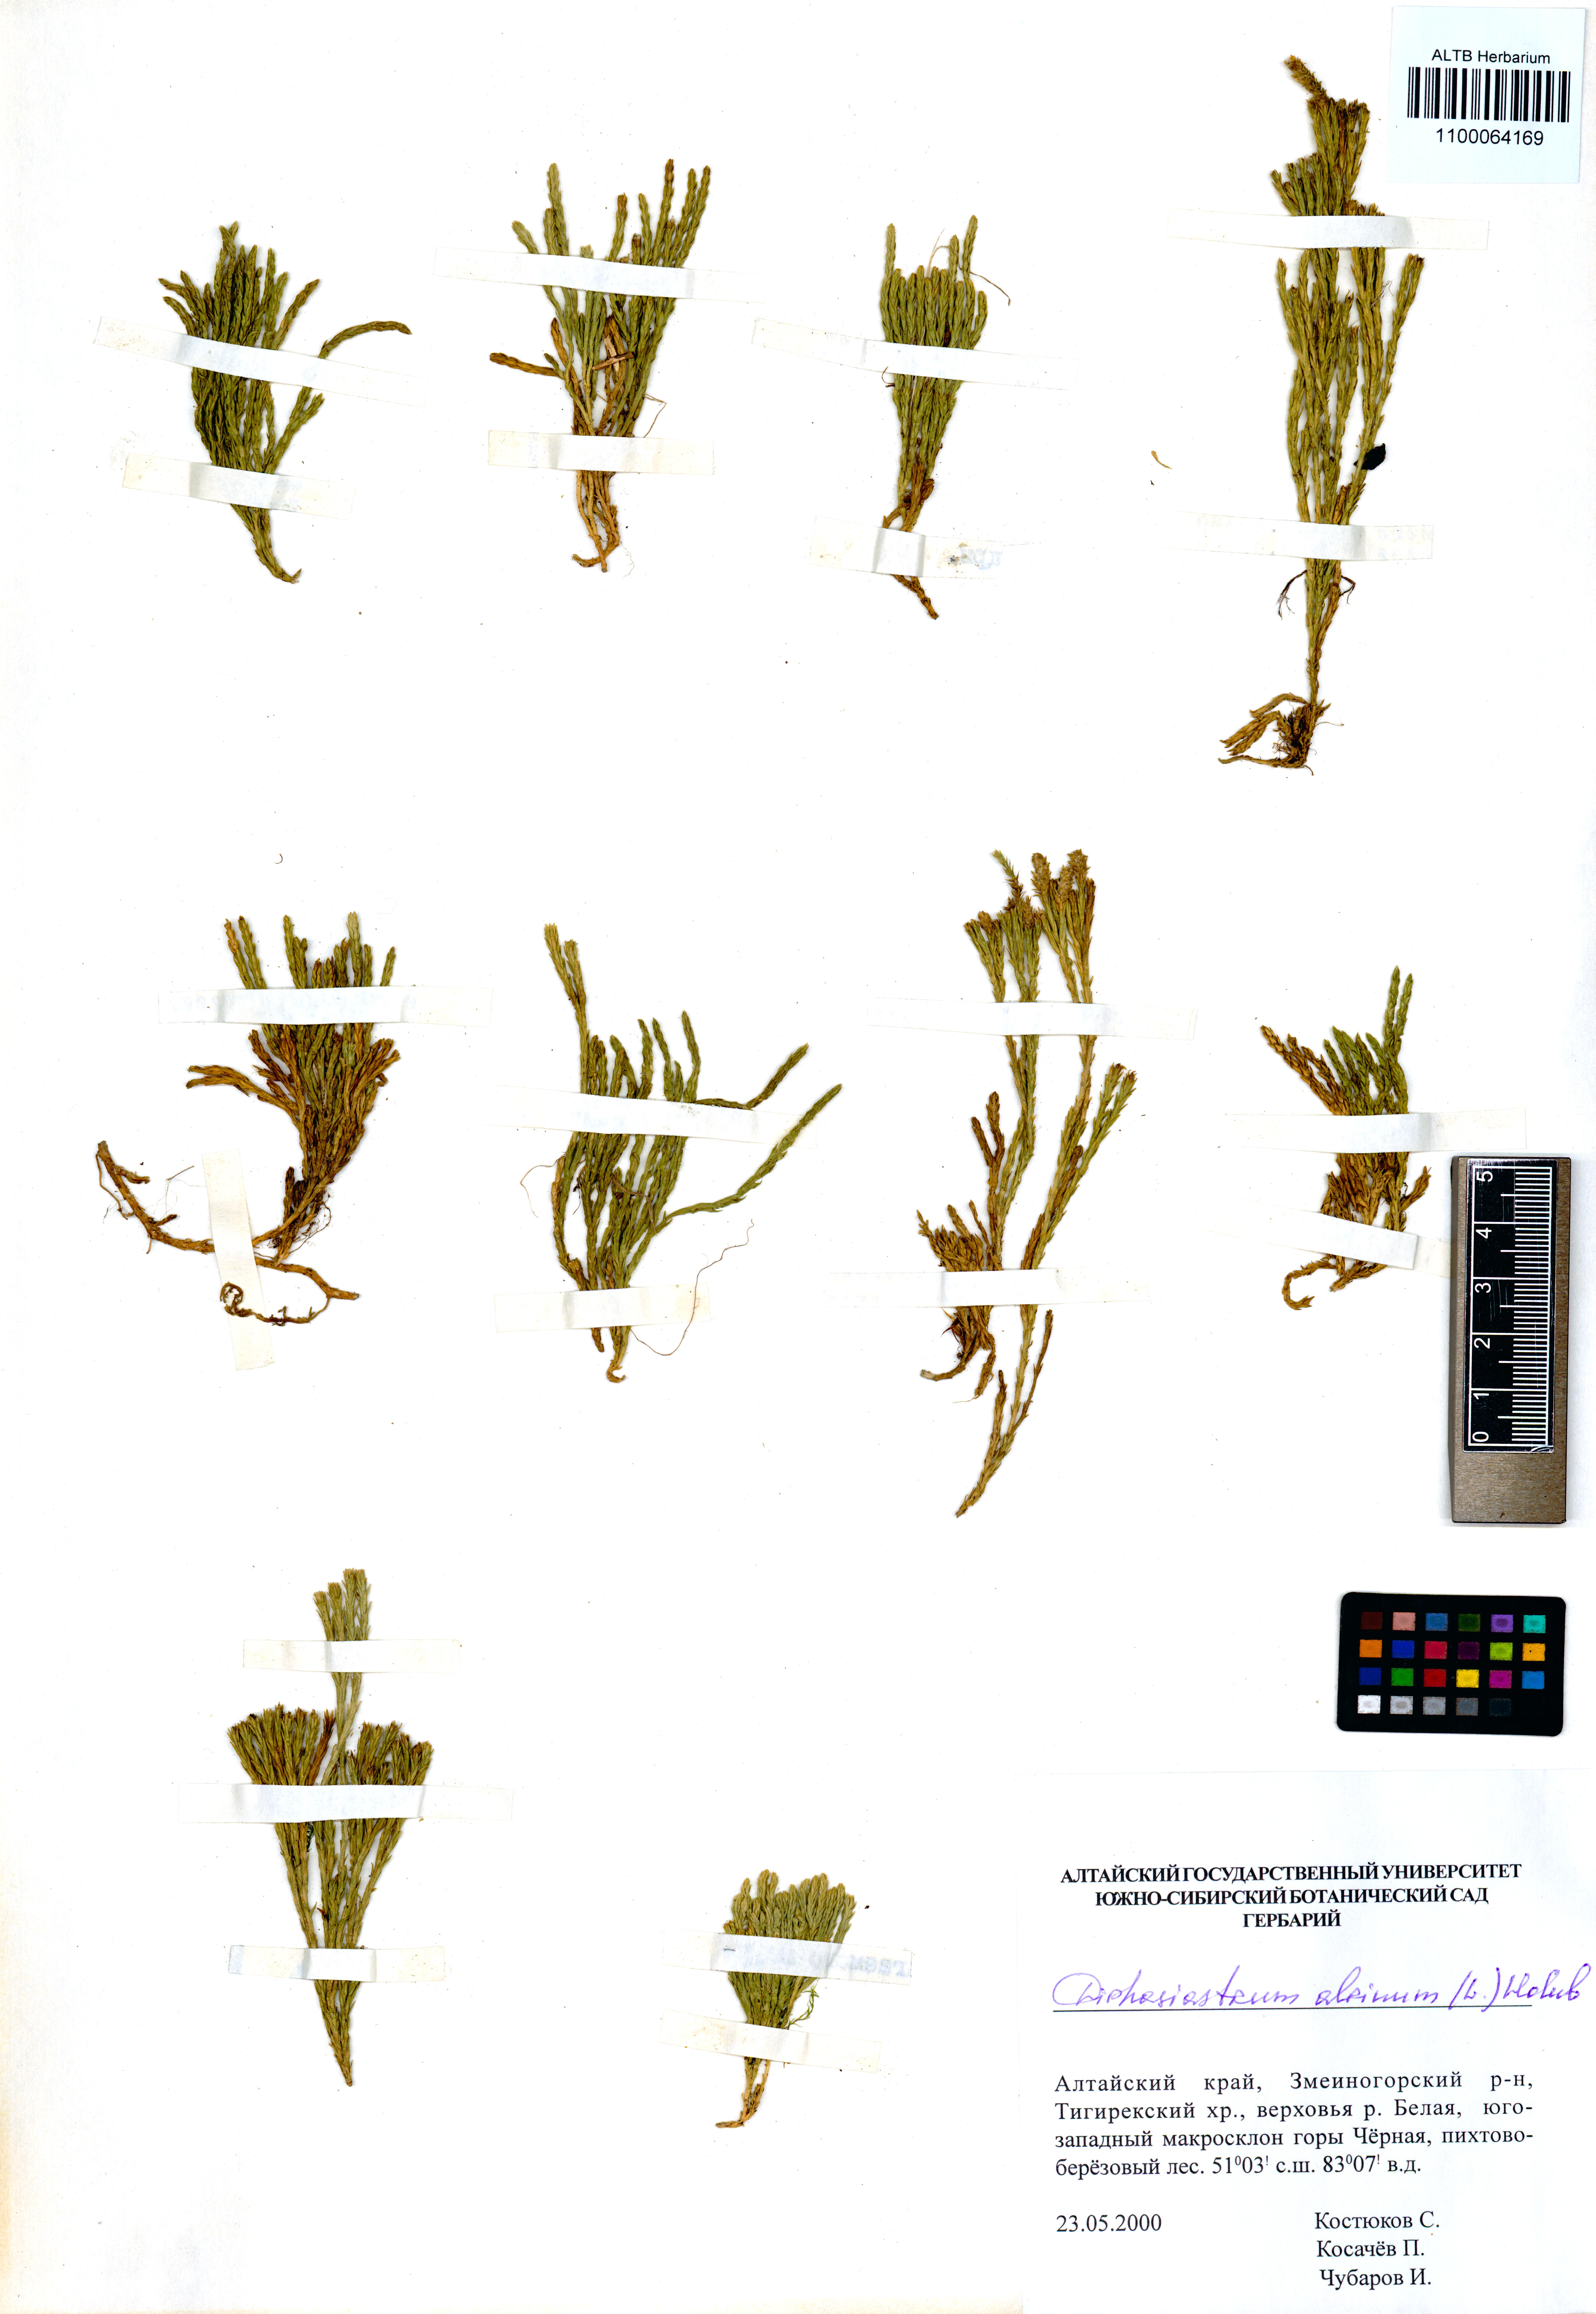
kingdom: Plantae
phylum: Tracheophyta
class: Lycopodiopsida
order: Lycopodiales
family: Lycopodiaceae
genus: Diphasiastrum
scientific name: Diphasiastrum alpinum
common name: Alpine clubmoss
